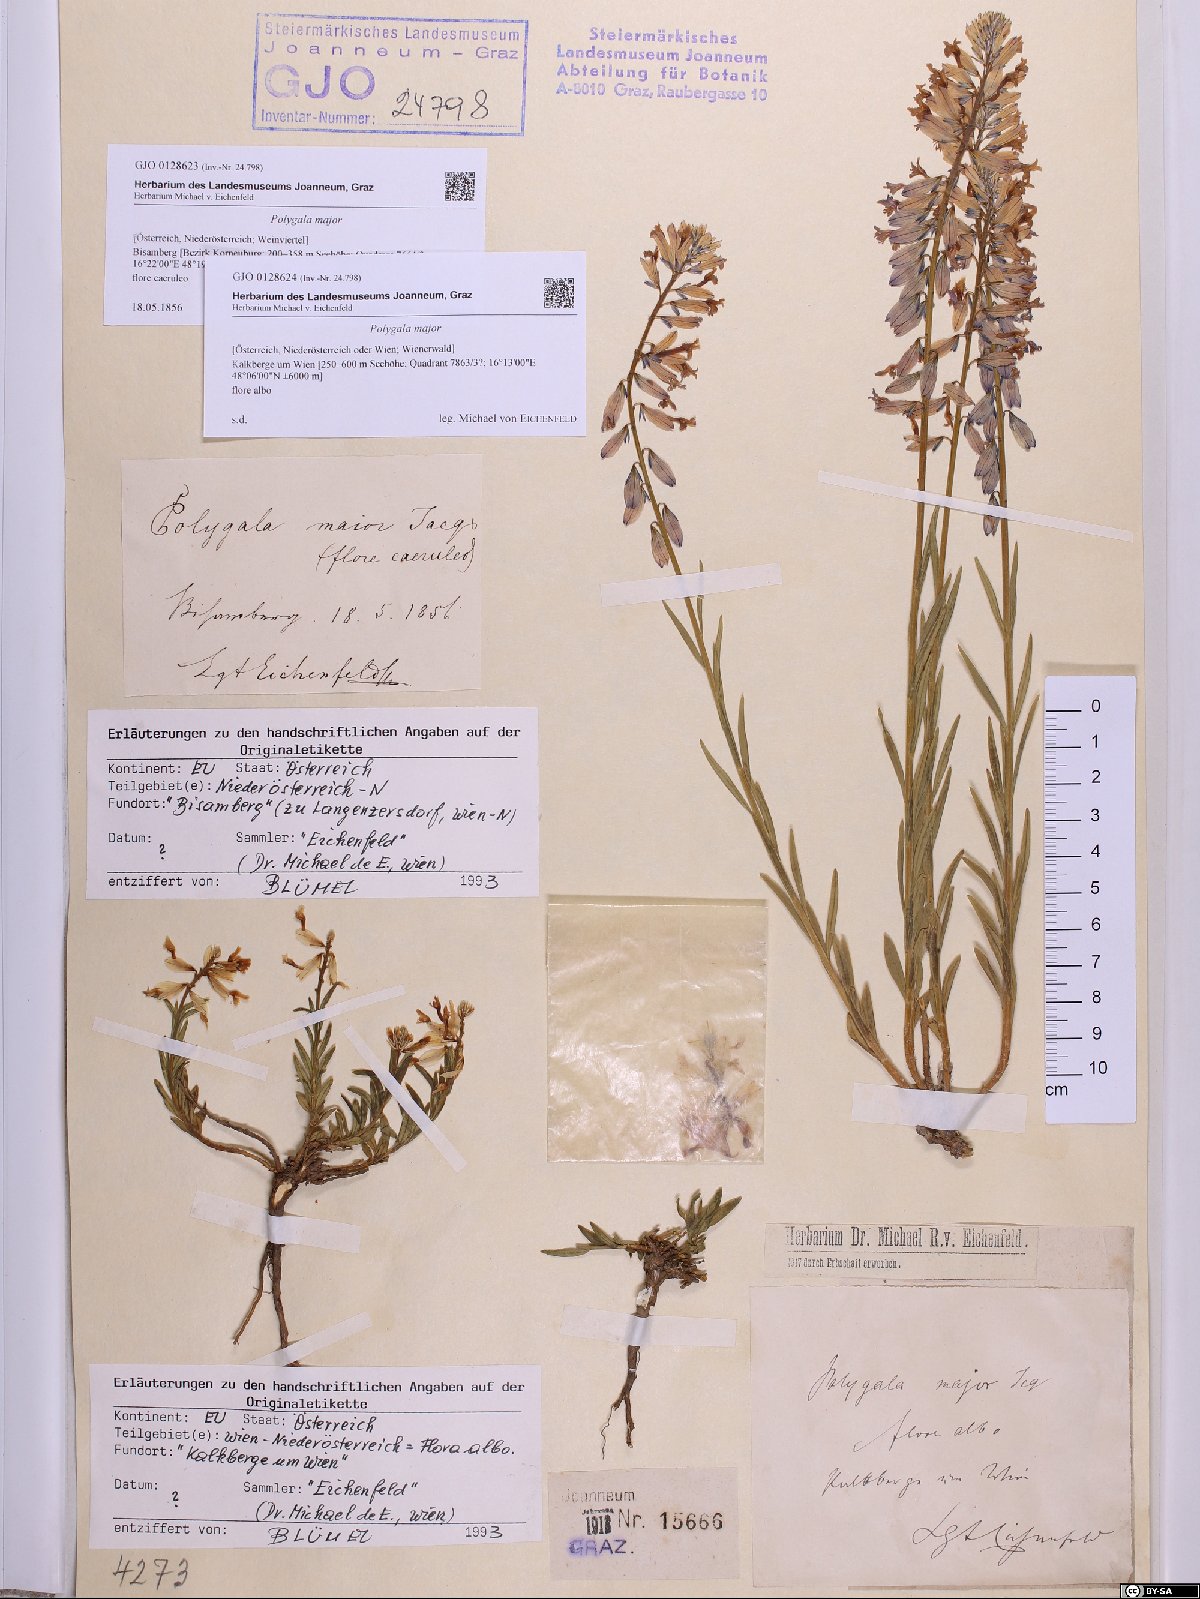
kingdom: Plantae
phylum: Tracheophyta
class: Magnoliopsida
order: Fabales
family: Polygalaceae
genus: Polygala
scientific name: Polygala major
